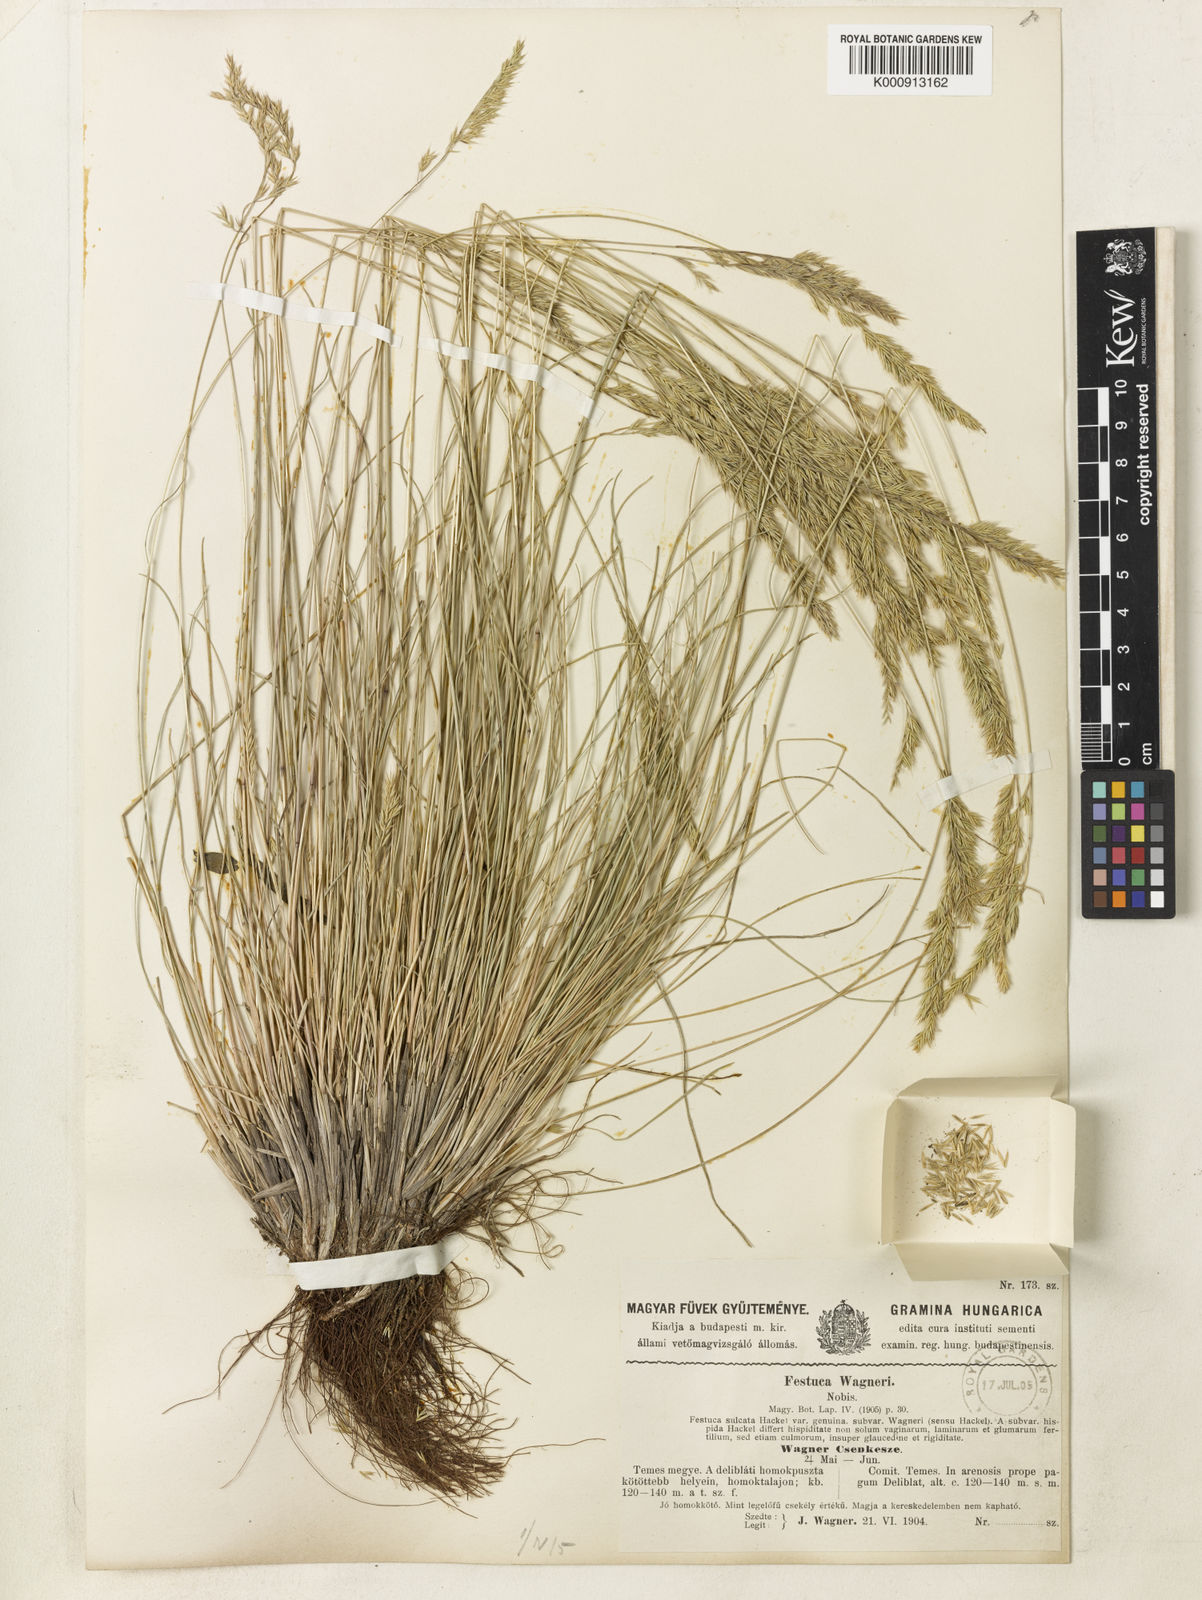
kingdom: Plantae
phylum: Tracheophyta
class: Liliopsida
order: Poales
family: Poaceae
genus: Festuca
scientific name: Festuca wagneri
